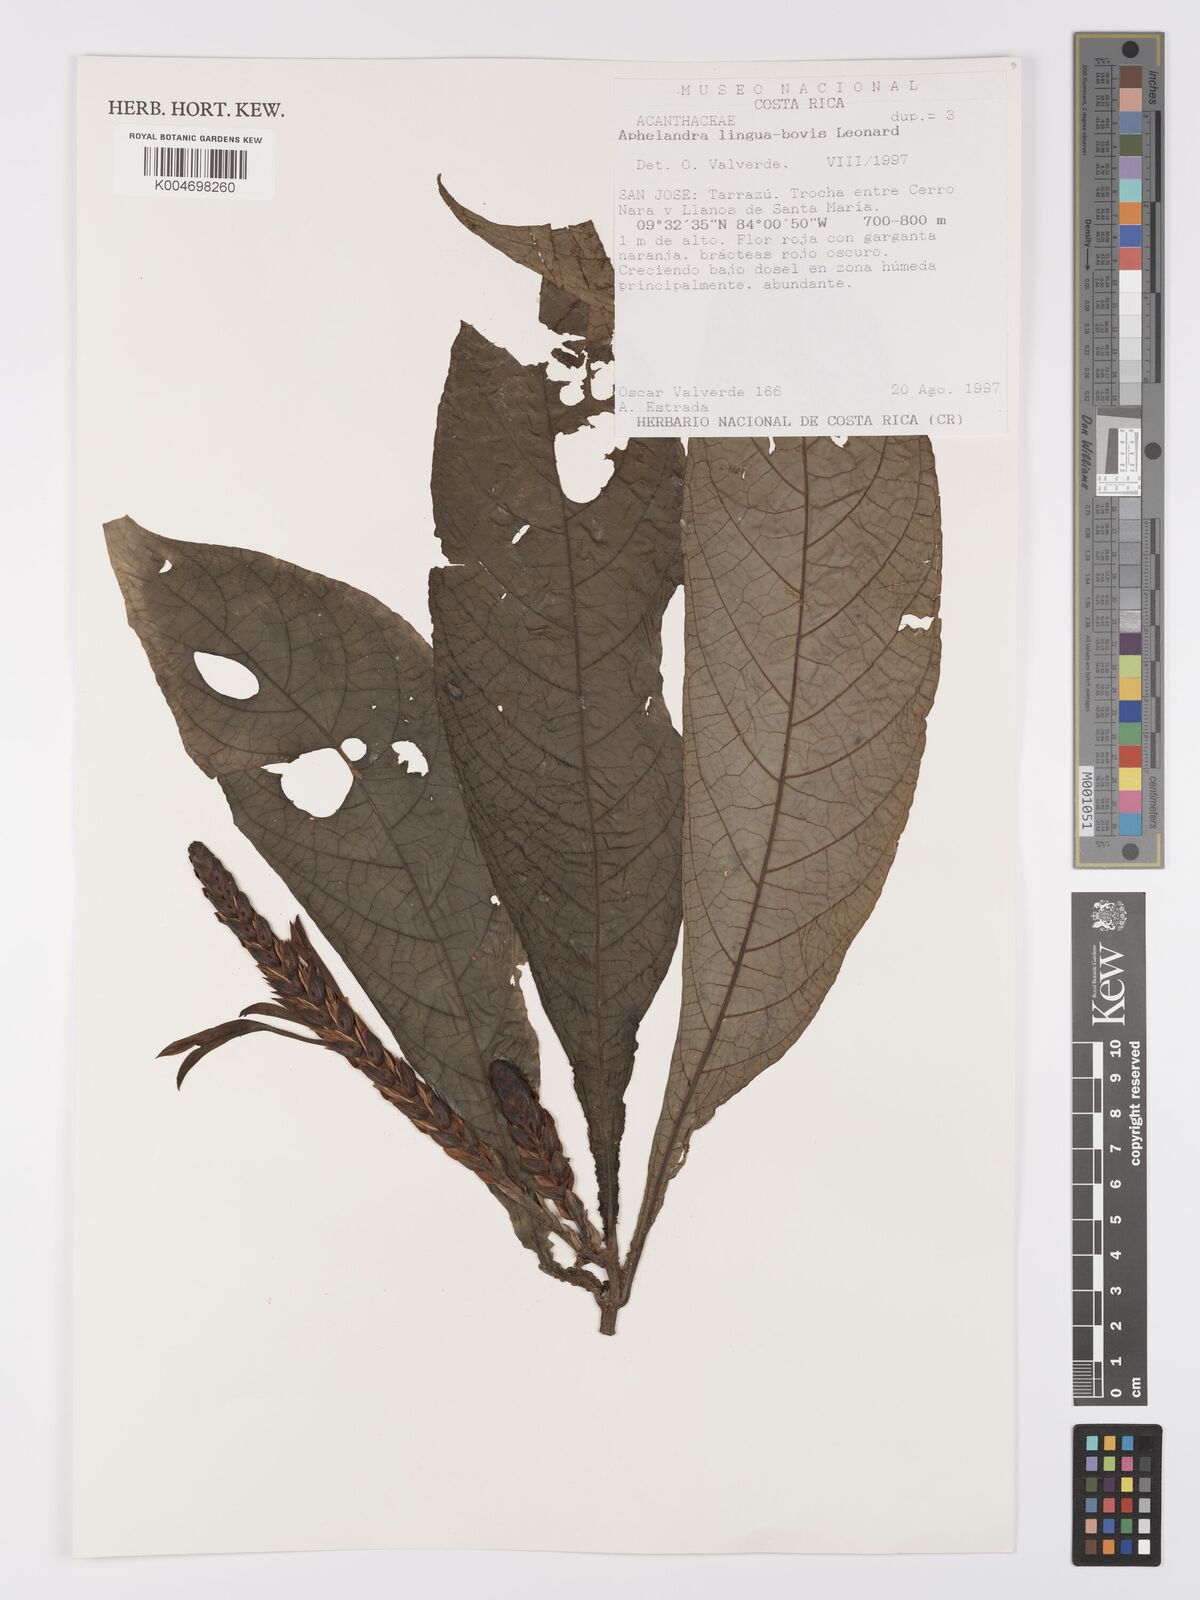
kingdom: Plantae
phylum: Tracheophyta
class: Magnoliopsida
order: Lamiales
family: Acanthaceae
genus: Aphelandra
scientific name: Aphelandra lingua-bovis
